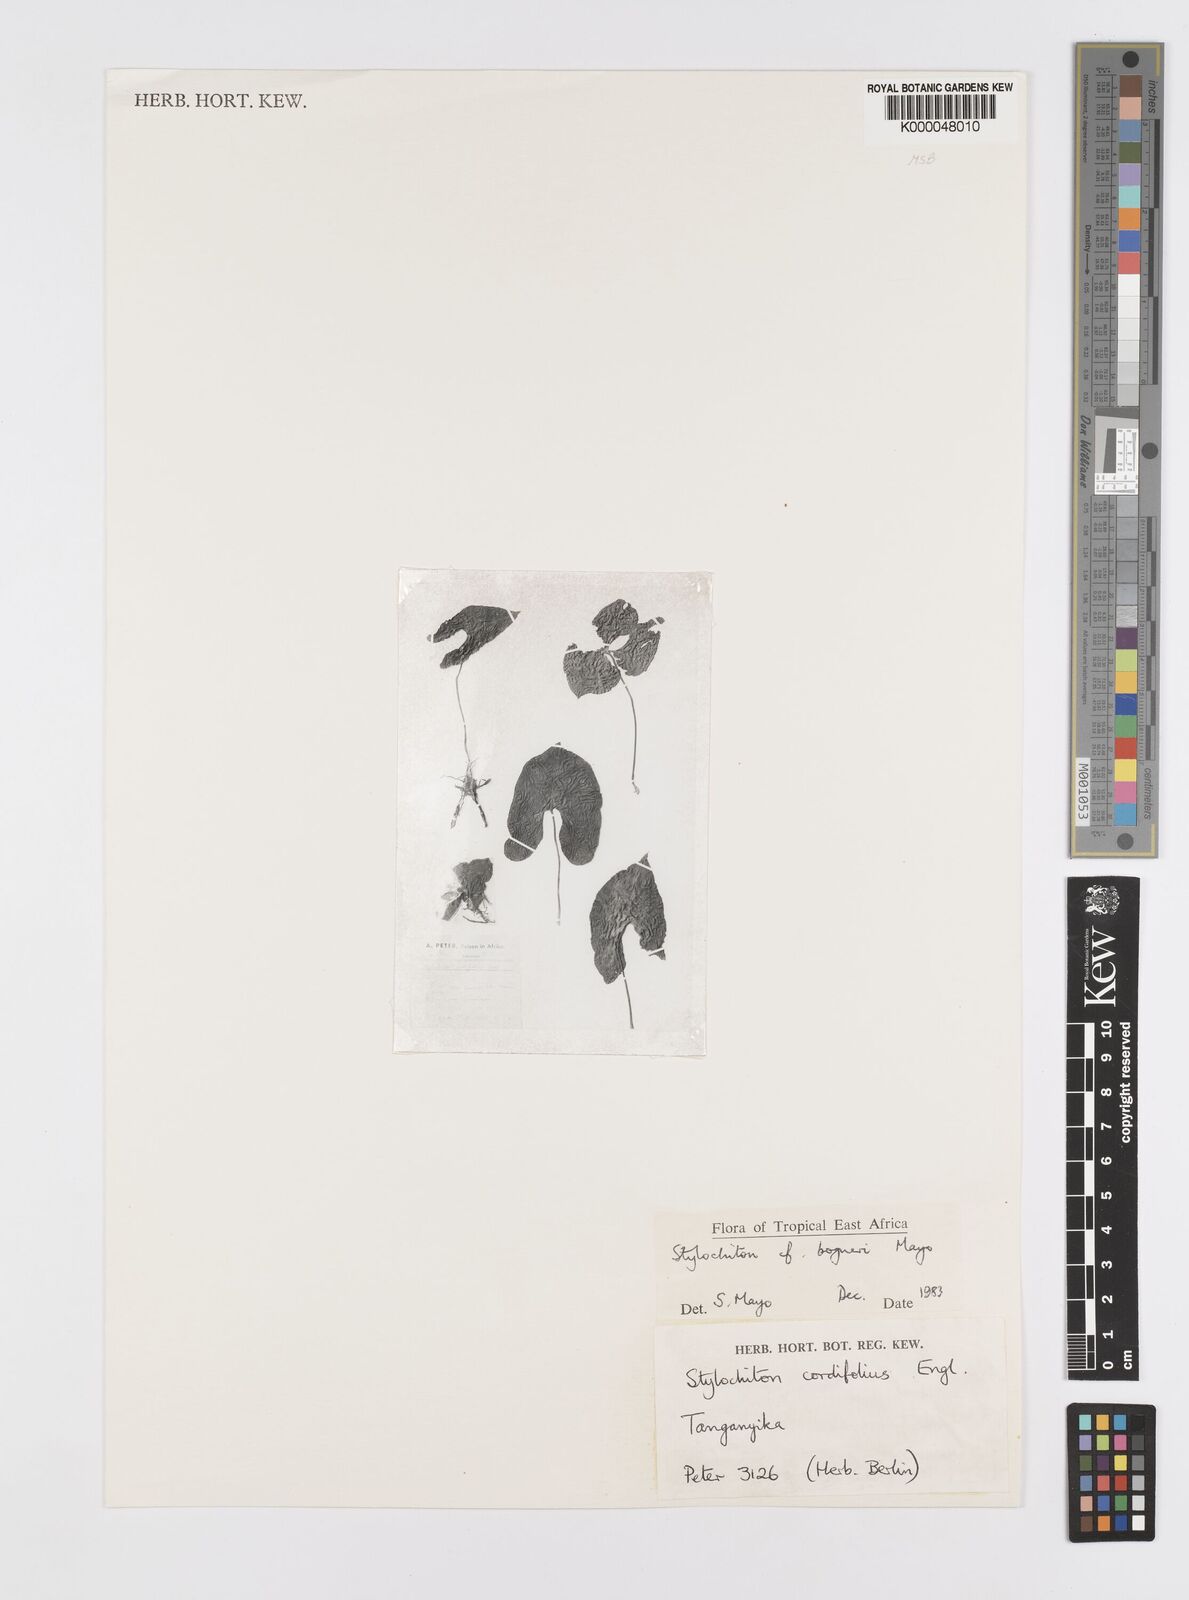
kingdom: Plantae
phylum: Tracheophyta
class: Liliopsida
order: Alismatales
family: Araceae
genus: Stylochaeton
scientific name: Stylochaeton bogneri
